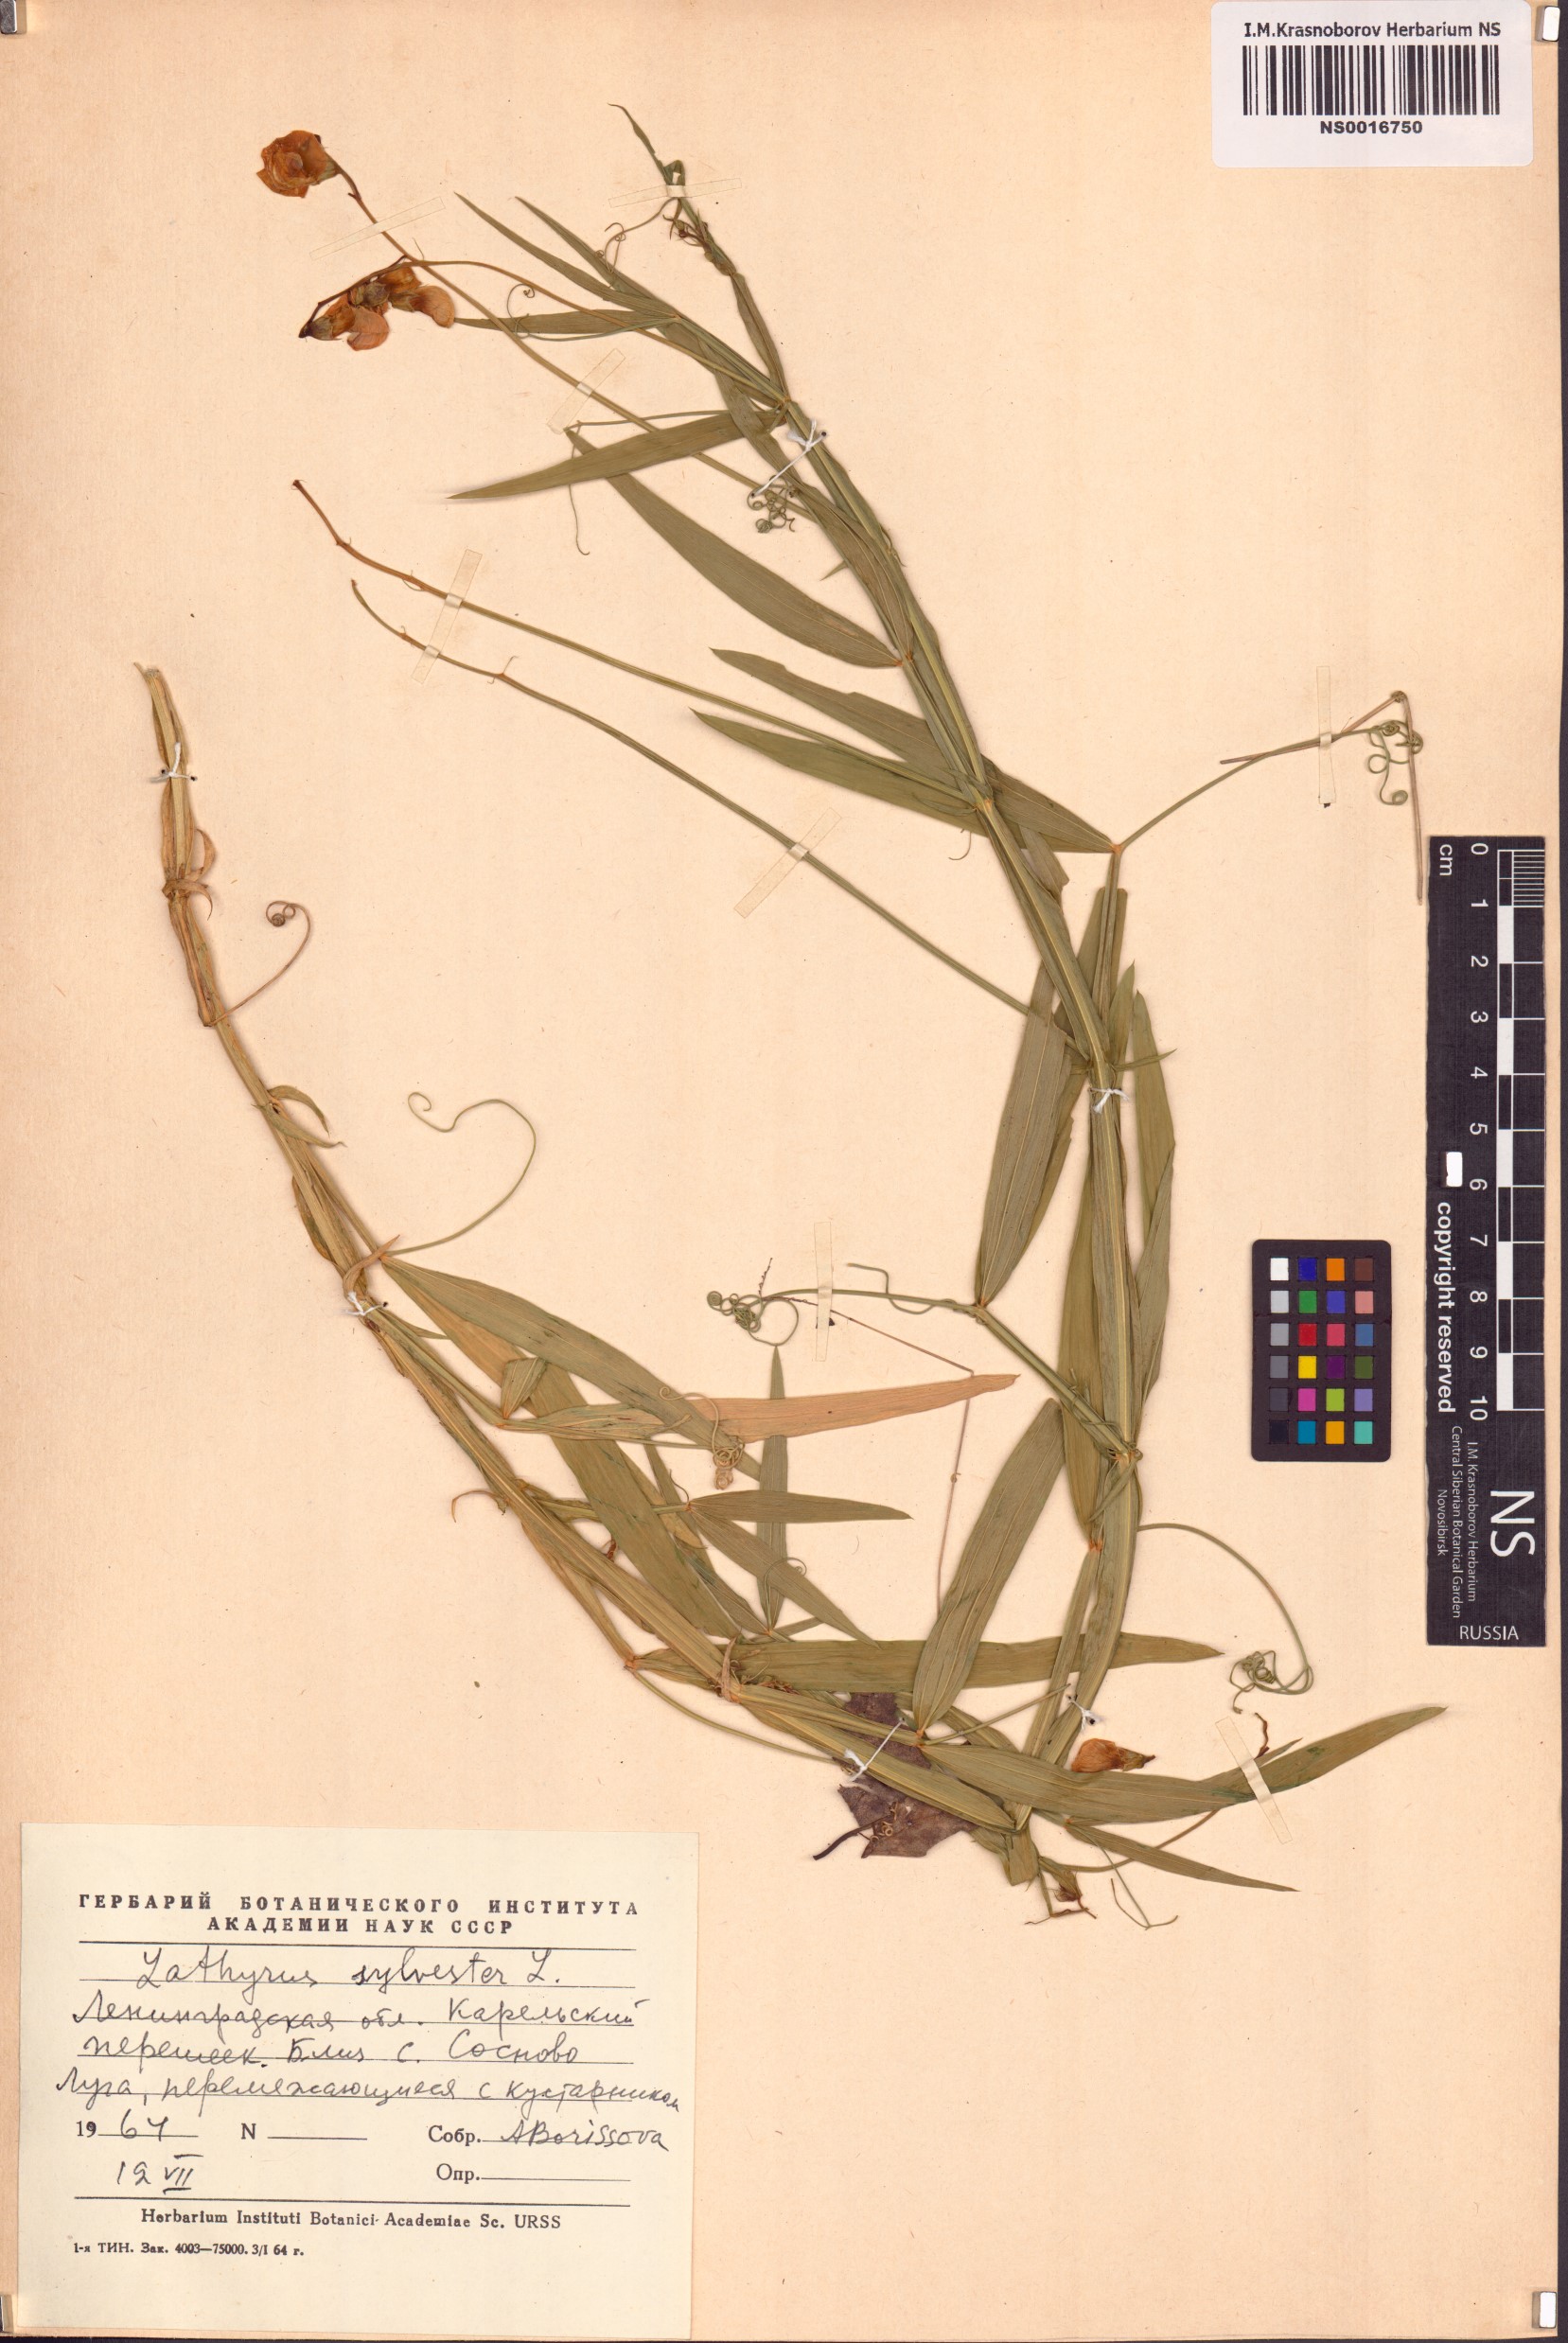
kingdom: Plantae
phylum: Tracheophyta
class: Magnoliopsida
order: Fabales
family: Fabaceae
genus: Lathyrus
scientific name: Lathyrus sylvestris
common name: Flat pea
